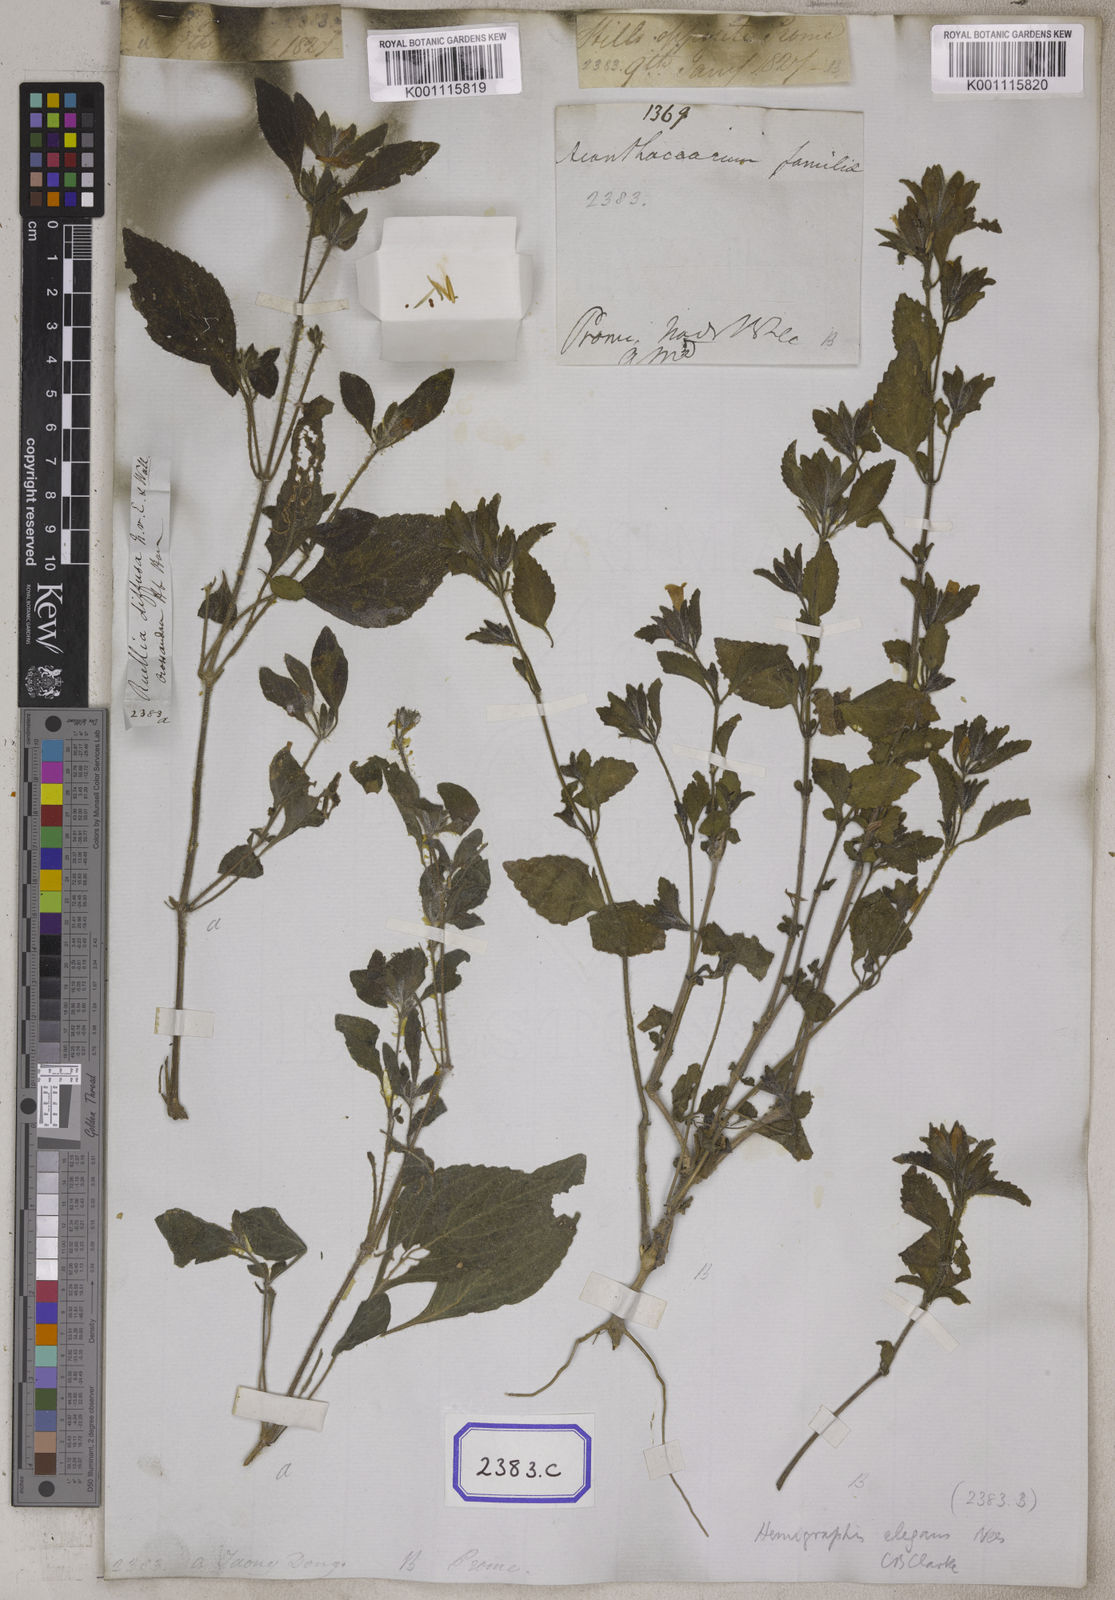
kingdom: Plantae
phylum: Tracheophyta
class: Magnoliopsida
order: Lamiales
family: Acanthaceae
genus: Ruellia
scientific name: Ruellia
